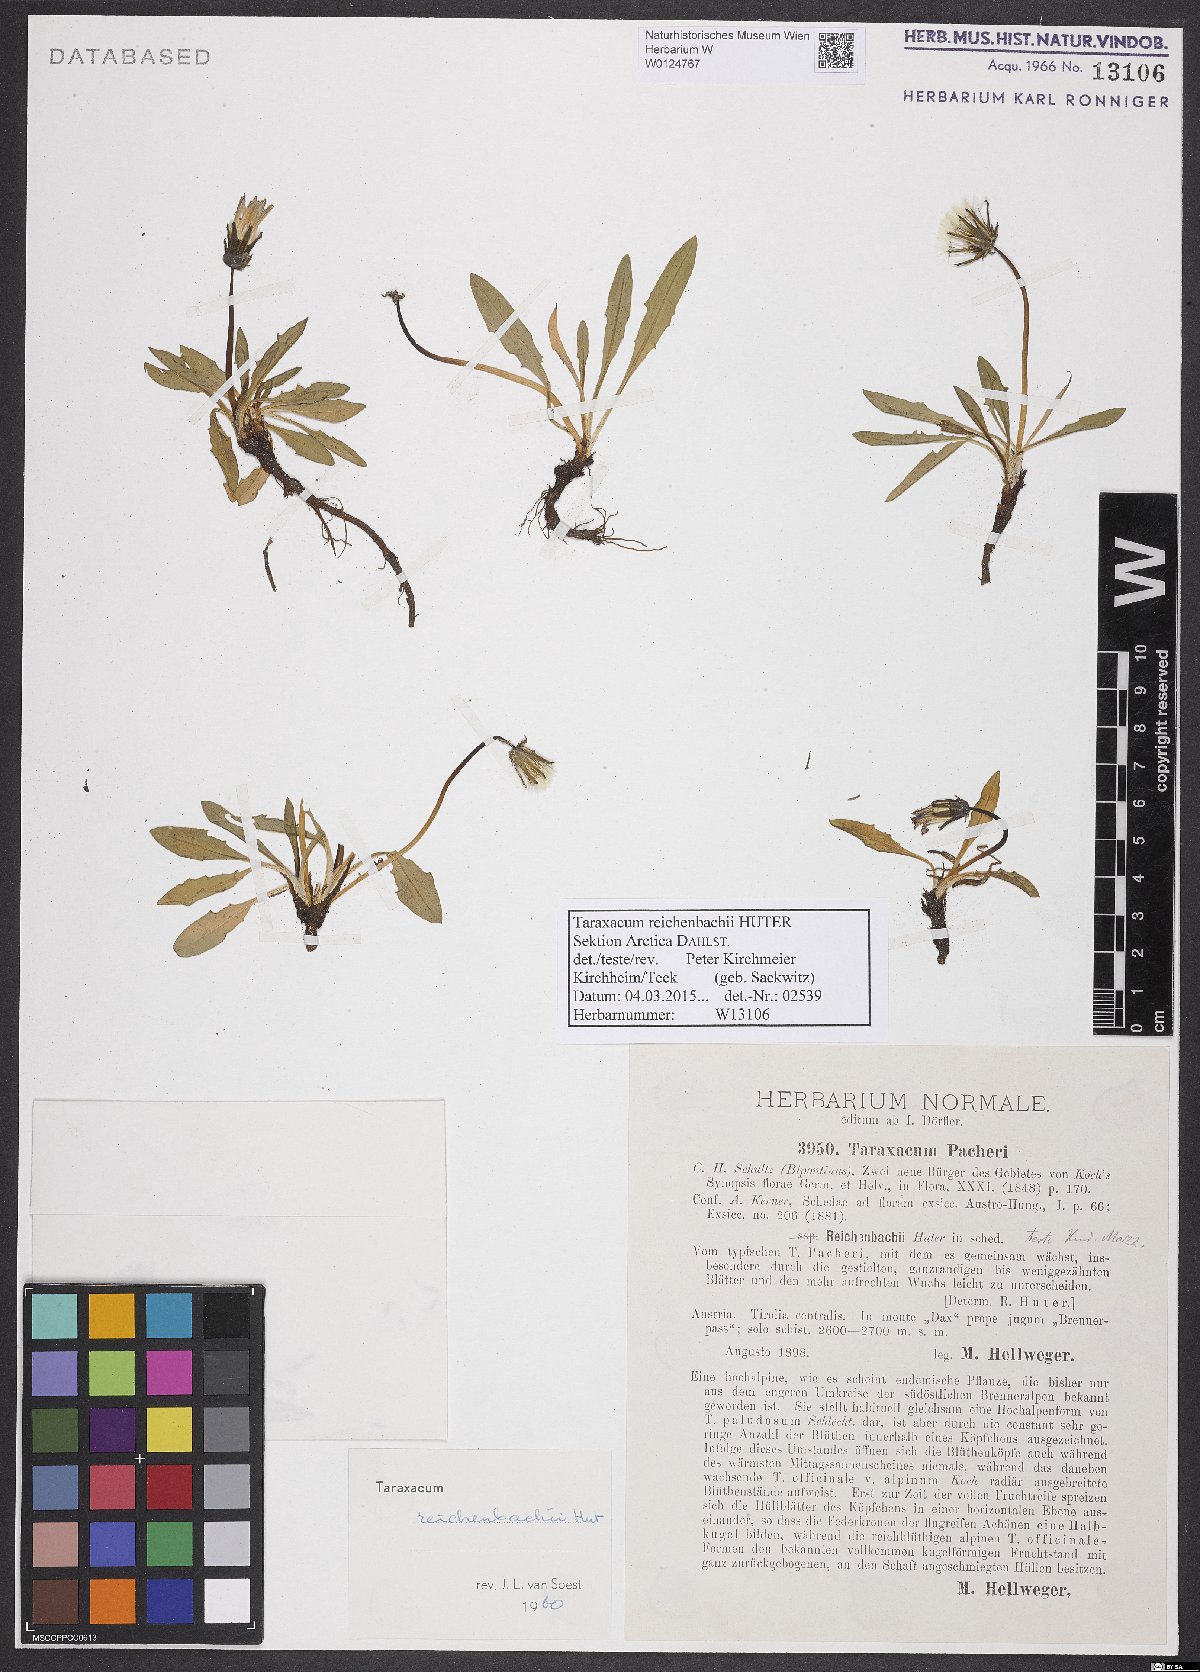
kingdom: Plantae
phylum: Tracheophyta
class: Magnoliopsida
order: Asterales
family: Asteraceae
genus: Taraxacum
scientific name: Taraxacum reichenbachii
